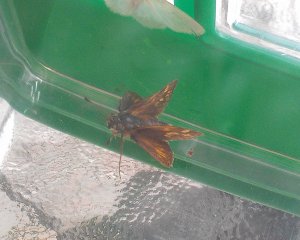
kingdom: Animalia
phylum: Arthropoda
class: Insecta
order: Lepidoptera
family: Hesperiidae
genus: Polites
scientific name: Polites coras
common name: Peck's Skipper
